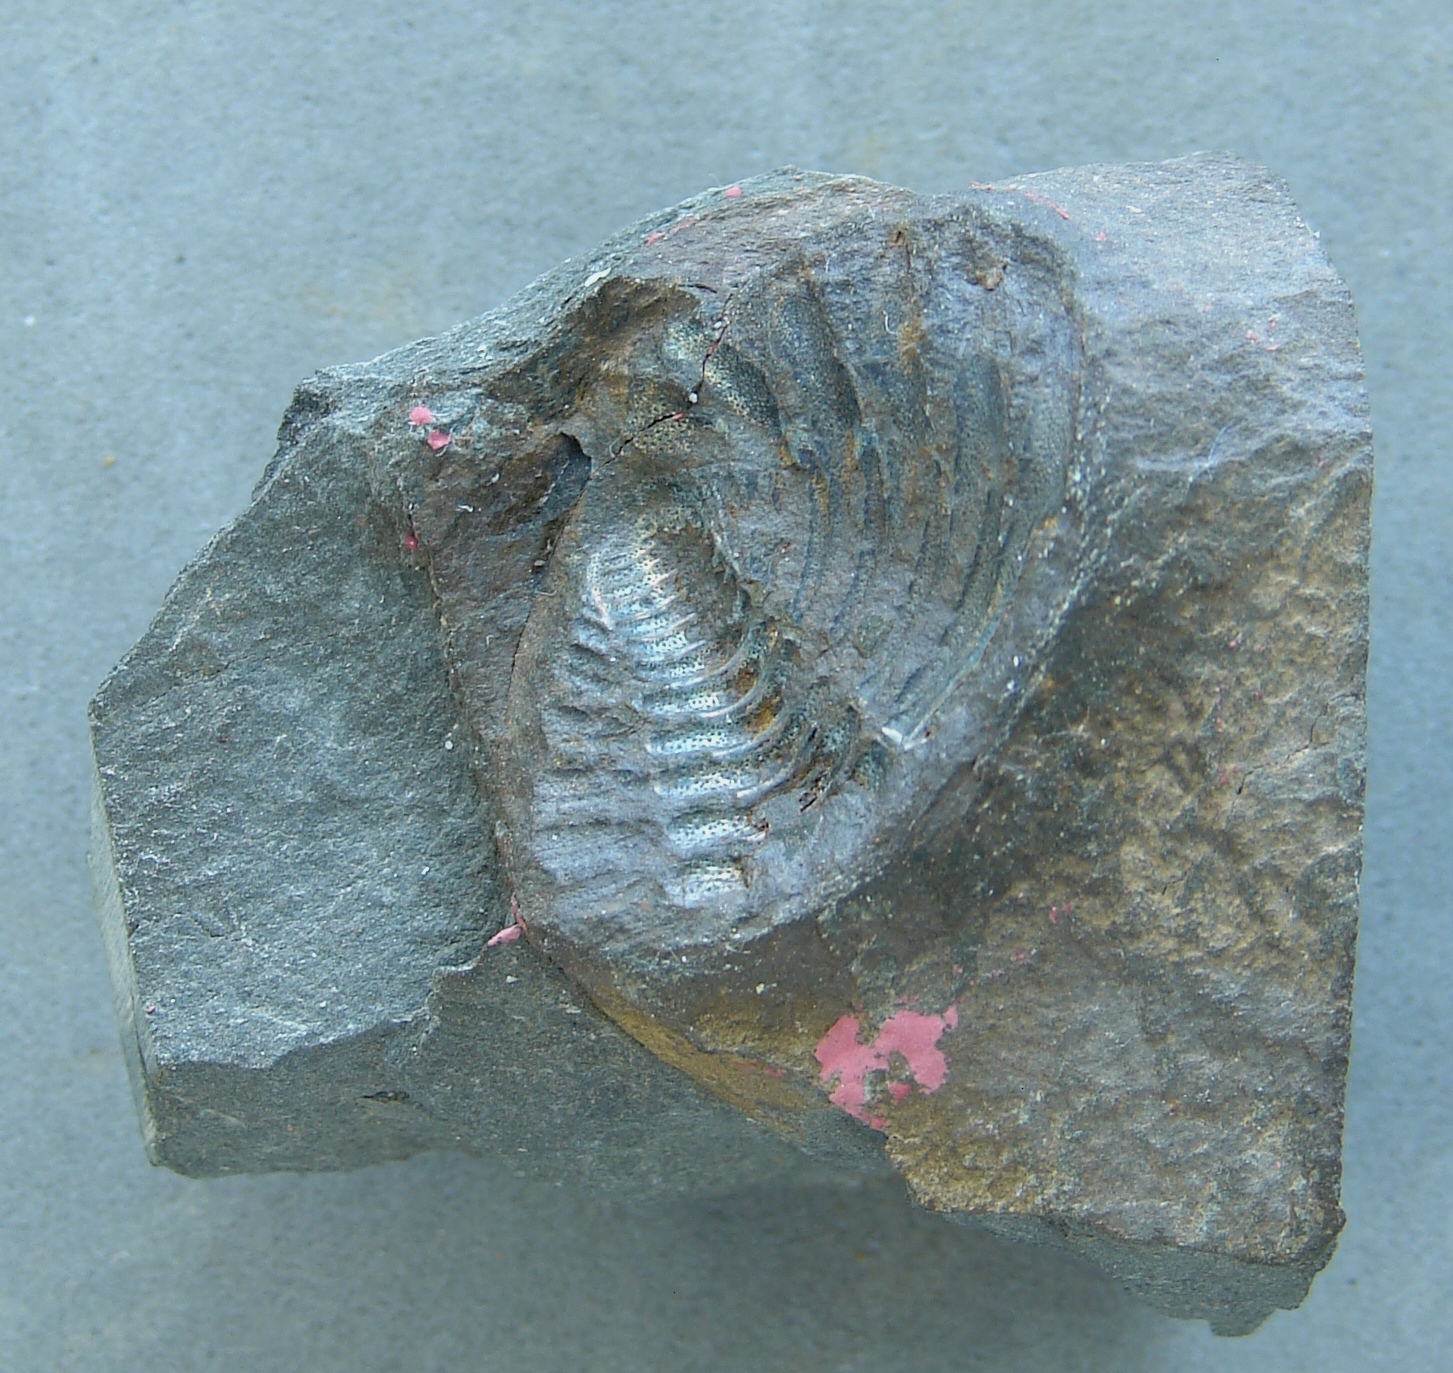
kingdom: Animalia
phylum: Arthropoda
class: Trilobita
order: Phacopida
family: Calmoniidae
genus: Treveropyge
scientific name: Treveropyge wiltziana
